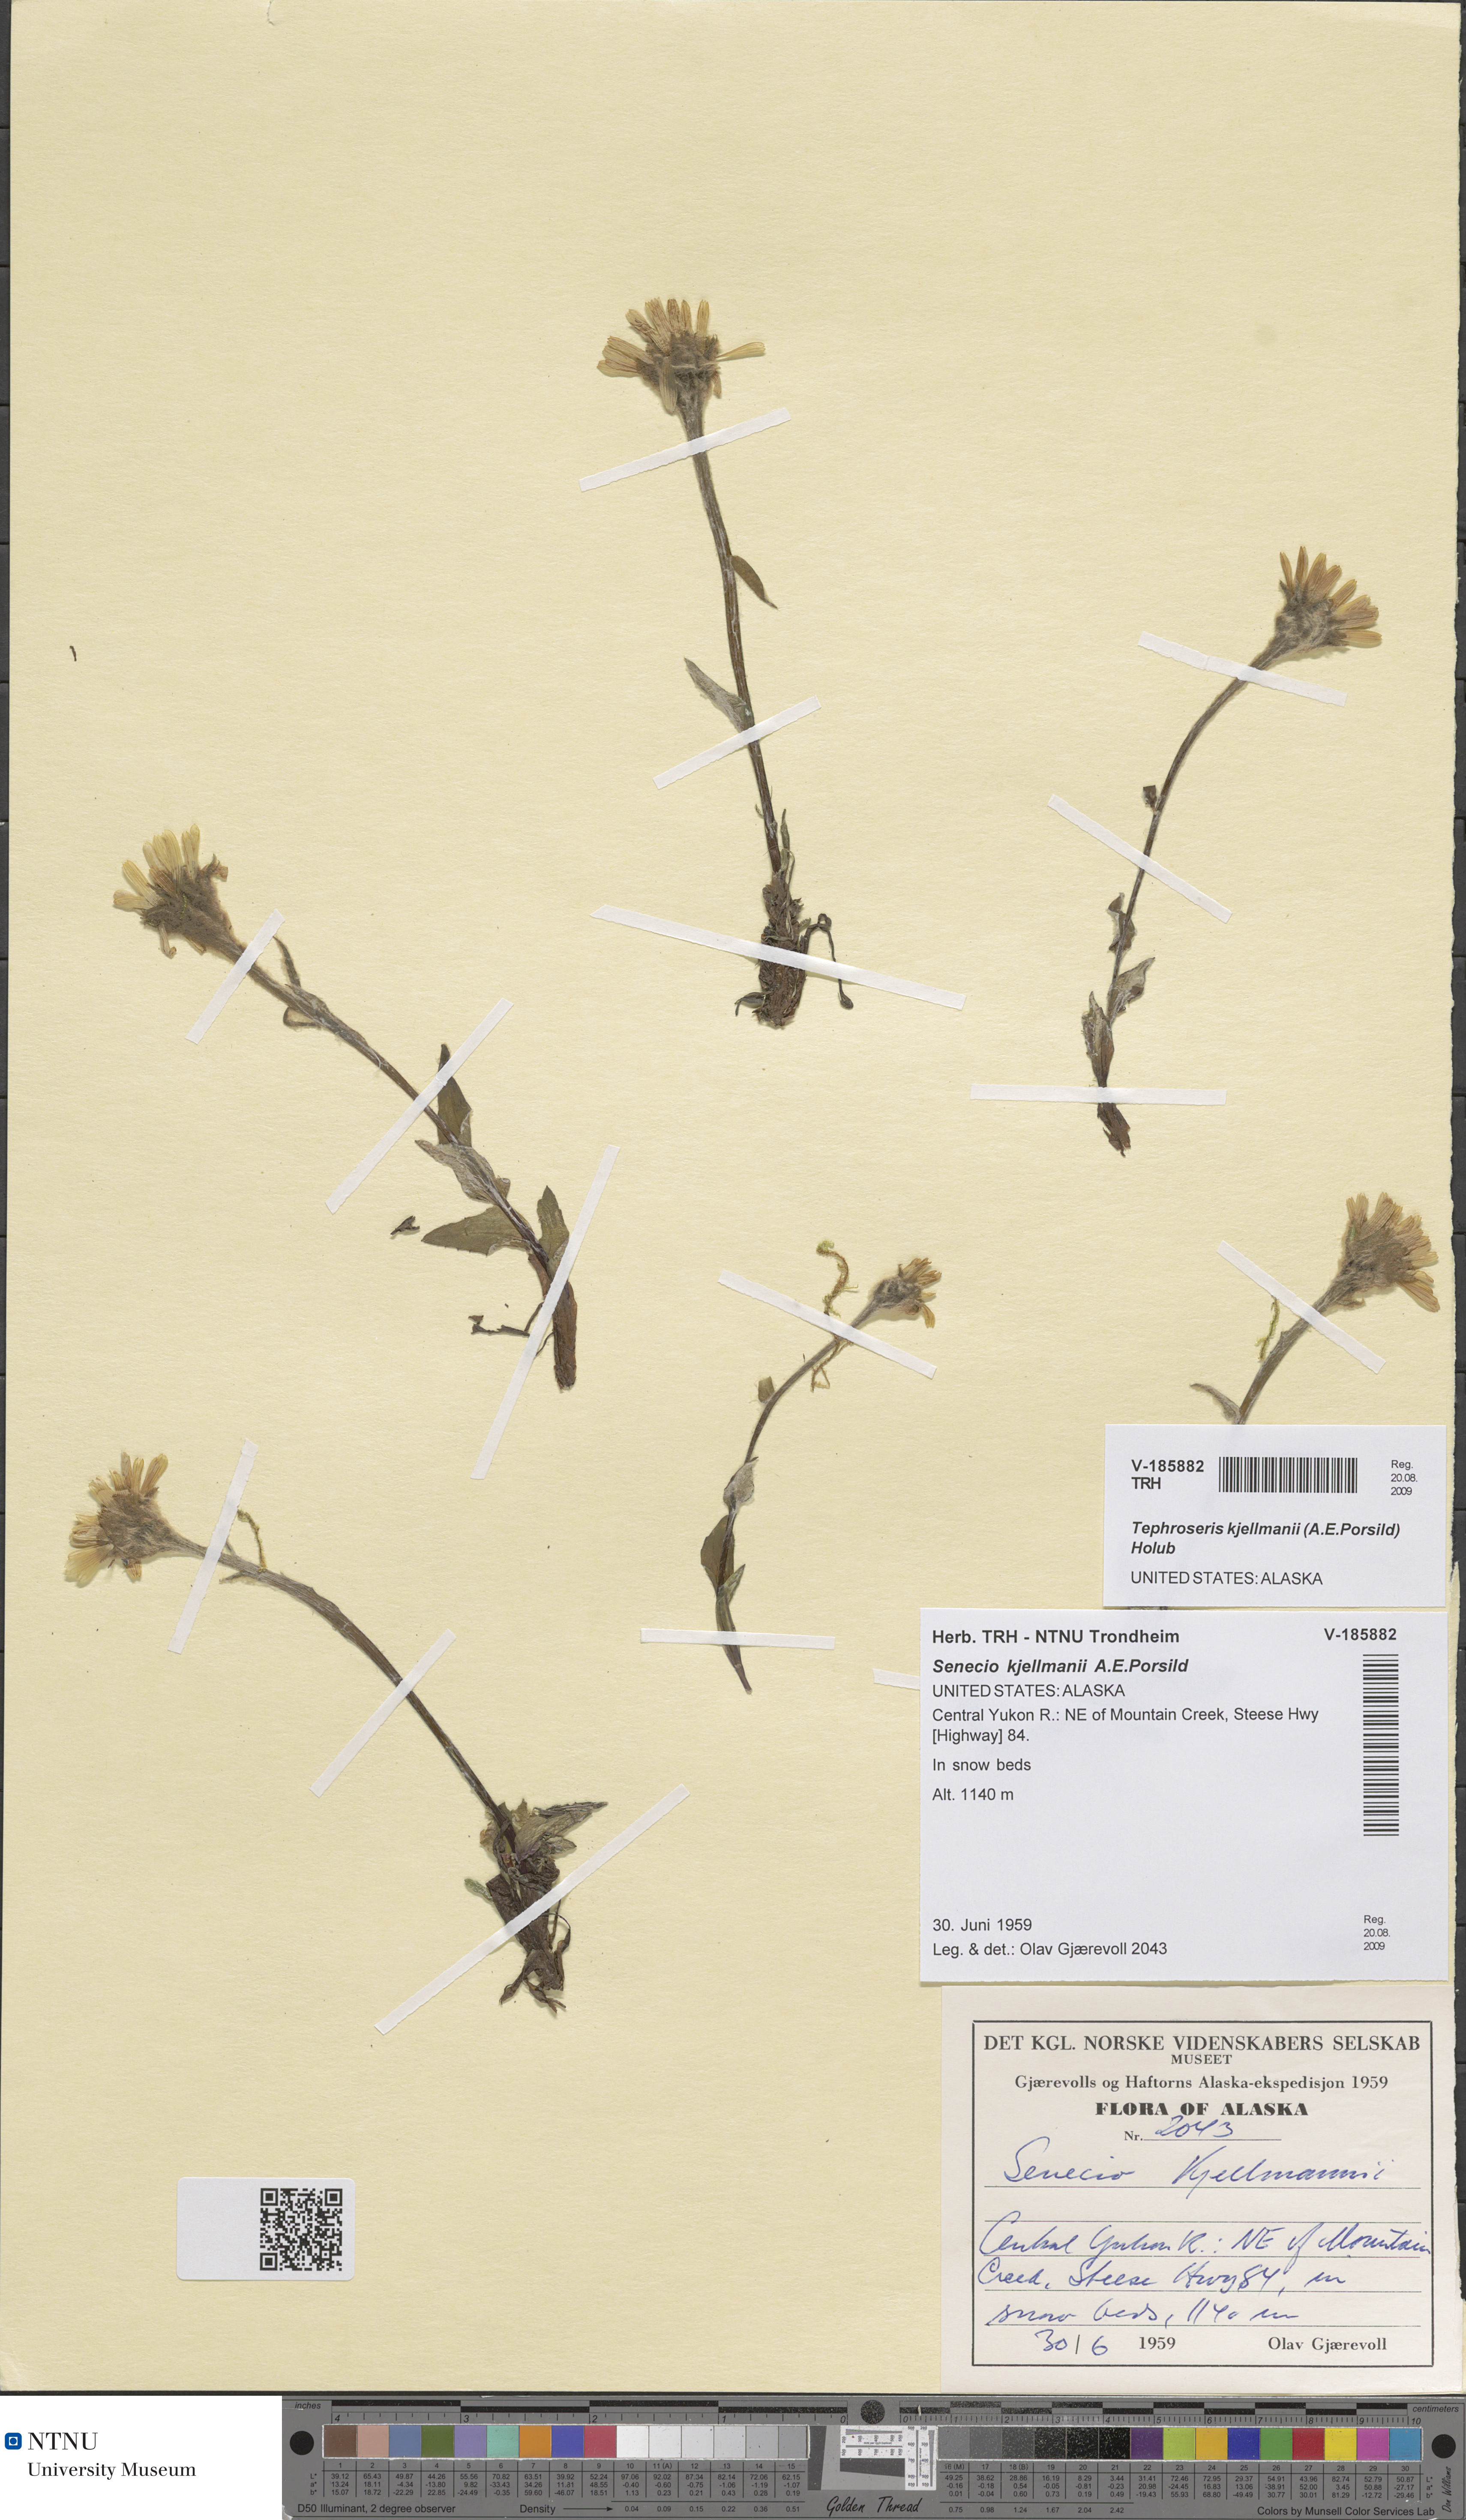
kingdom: Plantae
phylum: Tracheophyta
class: Magnoliopsida
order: Asterales
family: Asteraceae
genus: Tephroseris
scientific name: Tephroseris kjellmanii
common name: Kjellman's groundsel
